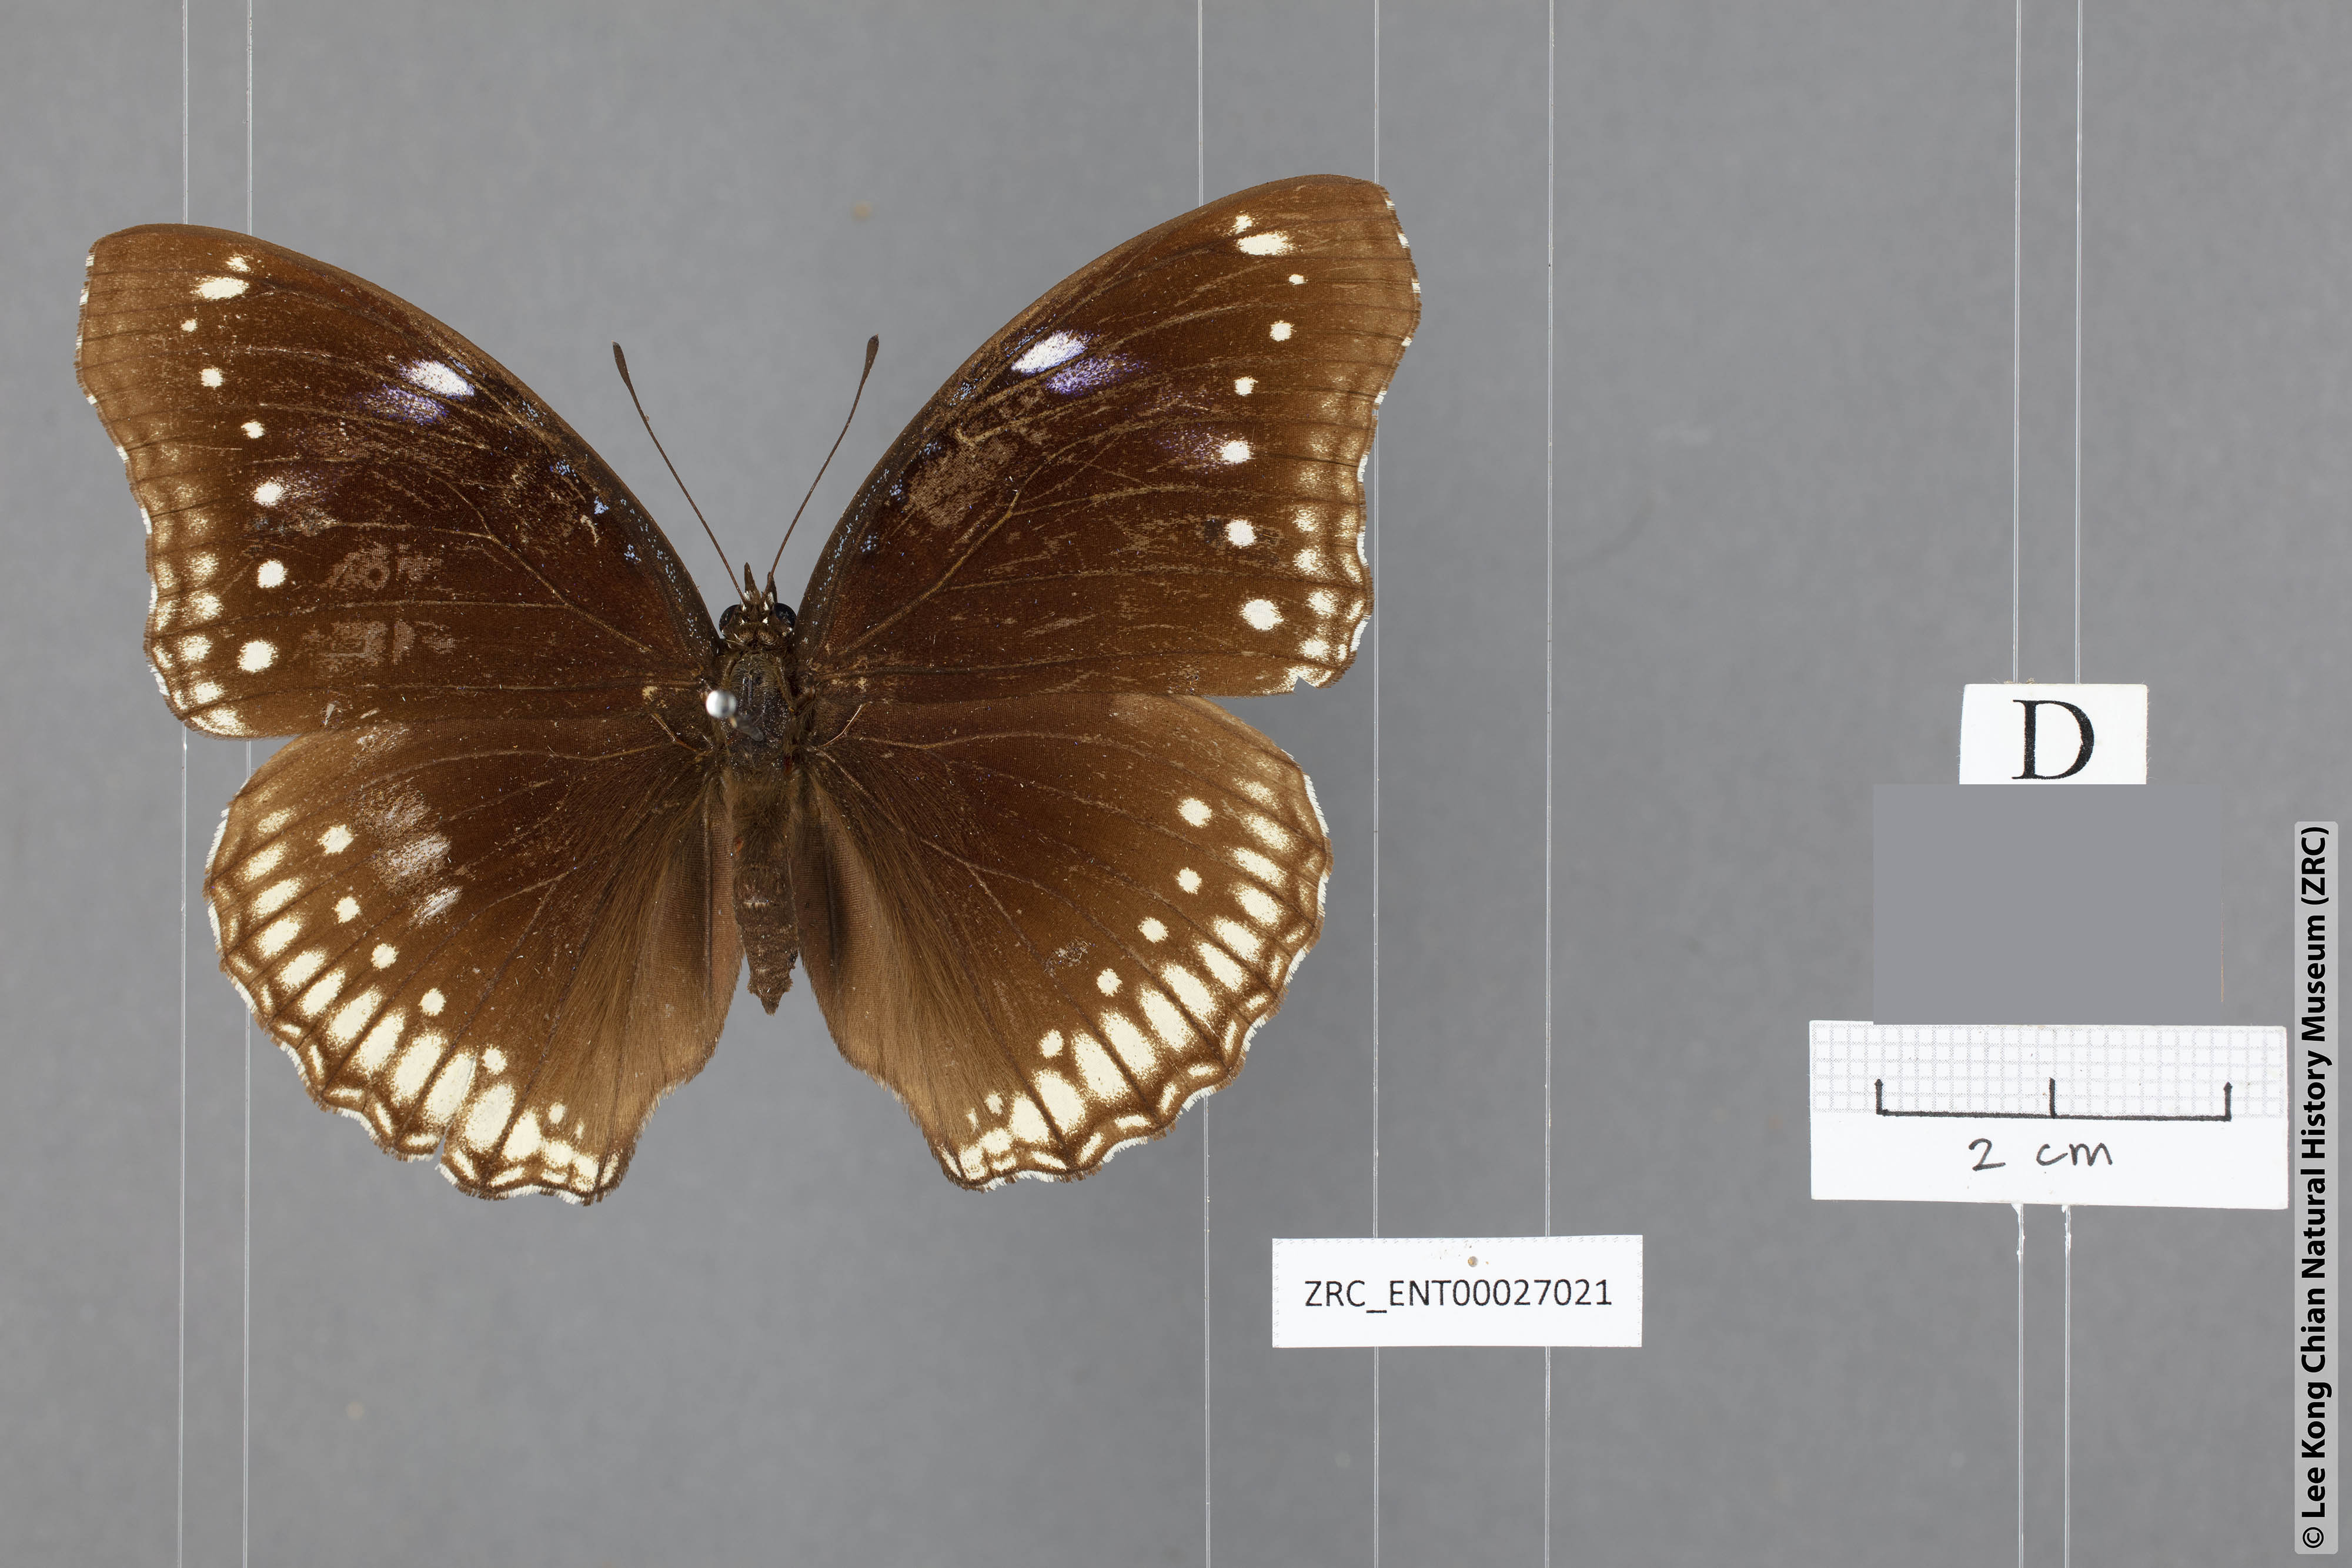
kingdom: Animalia
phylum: Arthropoda
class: Insecta
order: Lepidoptera
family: Nymphalidae
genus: Hypolimnas
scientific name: Hypolimnas bolina
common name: Great eggfly
